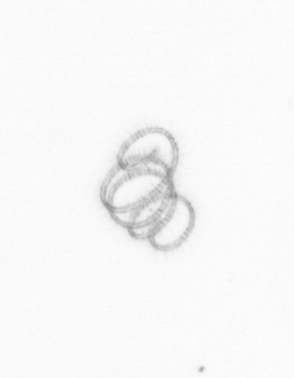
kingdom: Chromista
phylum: Ochrophyta
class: Bacillariophyceae
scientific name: Bacillariophyceae
